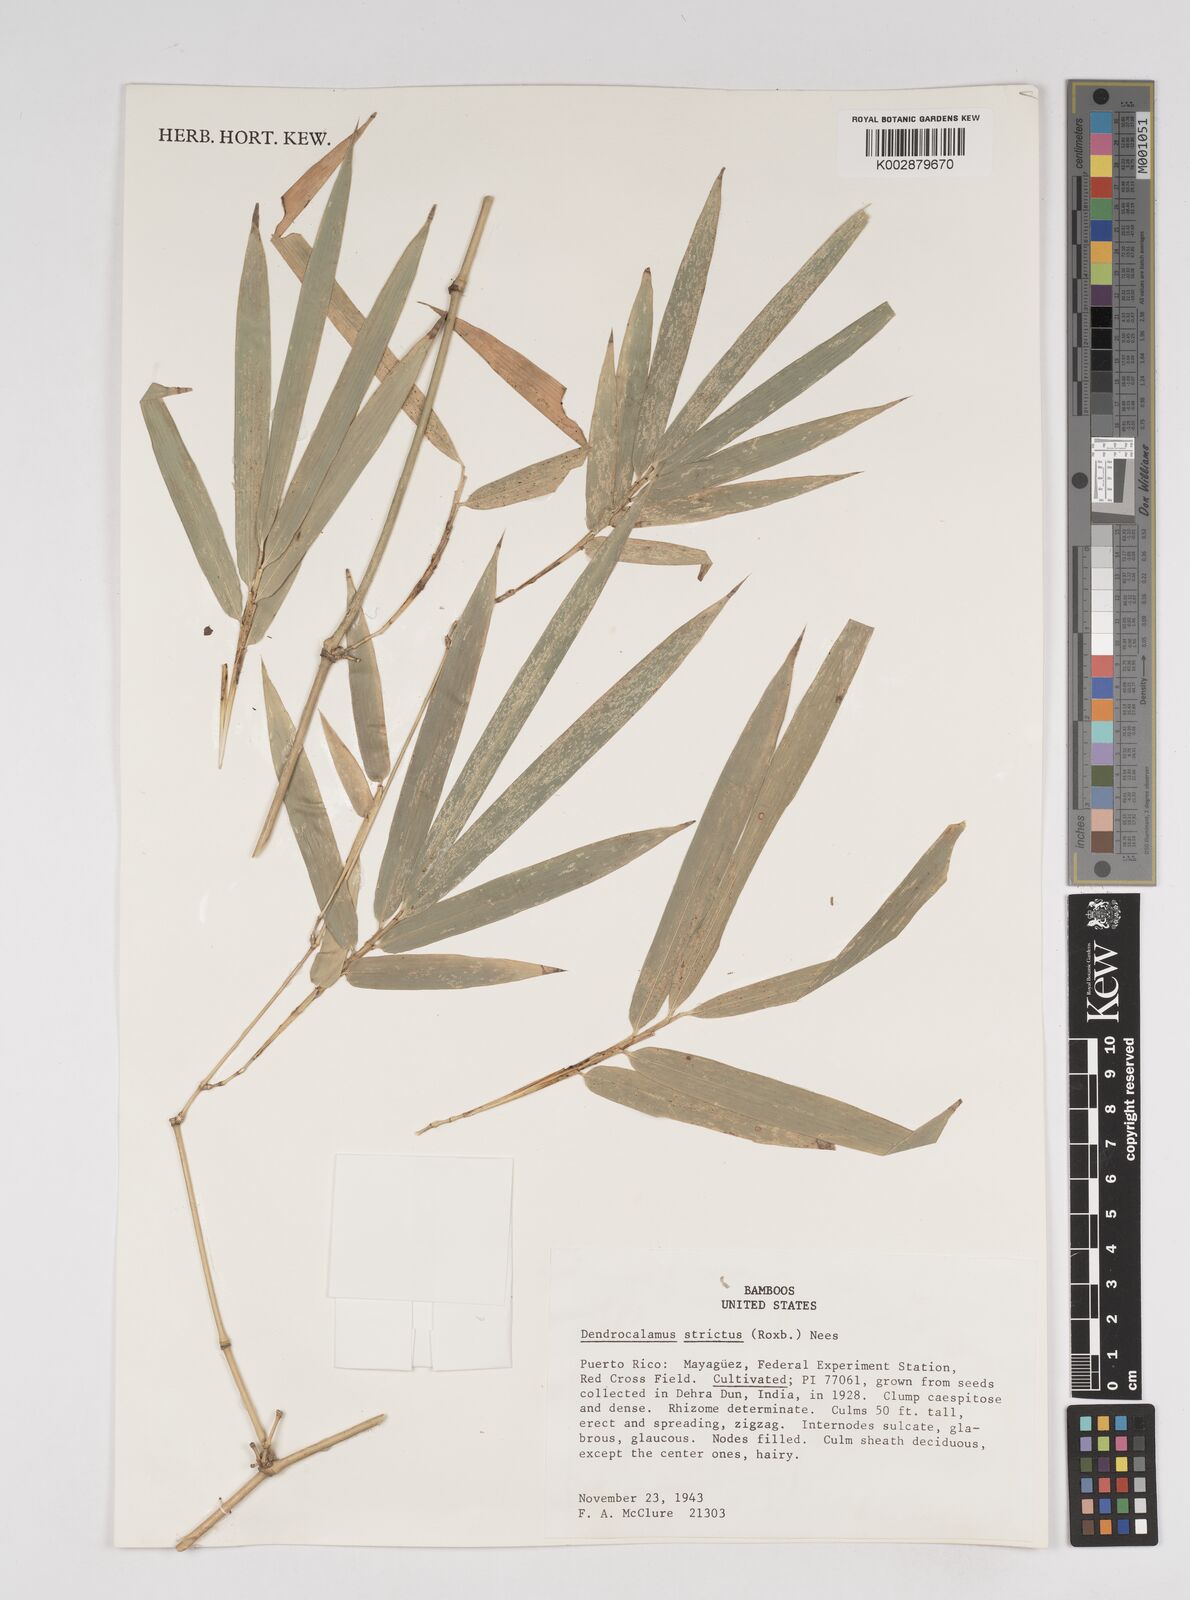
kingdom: Plantae
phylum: Tracheophyta
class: Liliopsida
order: Poales
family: Poaceae
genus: Dendrocalamus
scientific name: Dendrocalamus strictus
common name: Male bamboo
